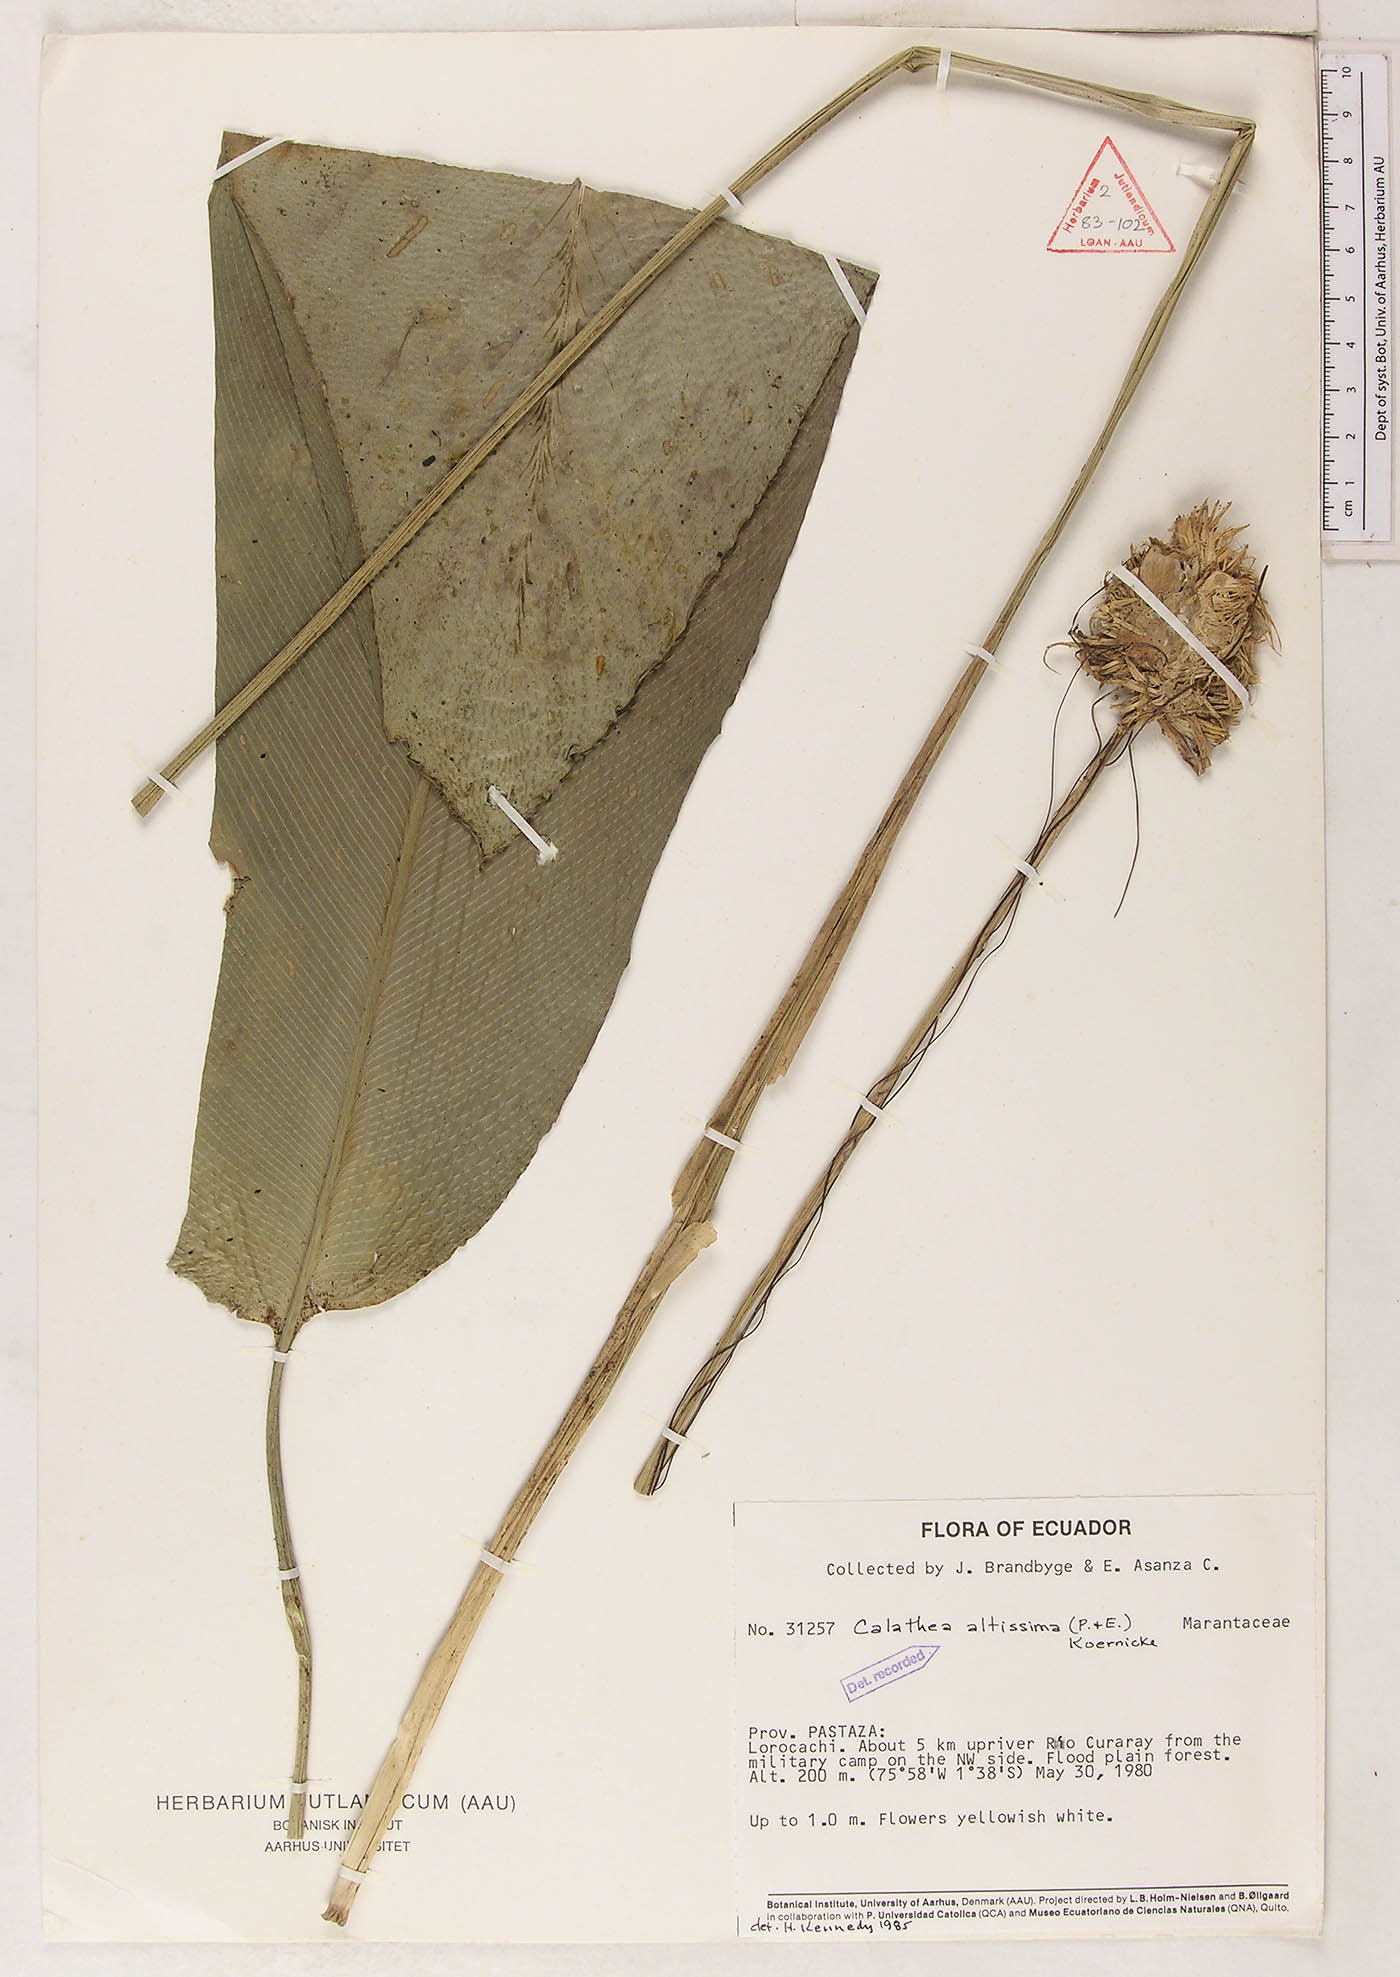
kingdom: Plantae
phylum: Tracheophyta
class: Liliopsida
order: Zingiberales
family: Marantaceae
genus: Goeppertia
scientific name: Goeppertia amazonica
